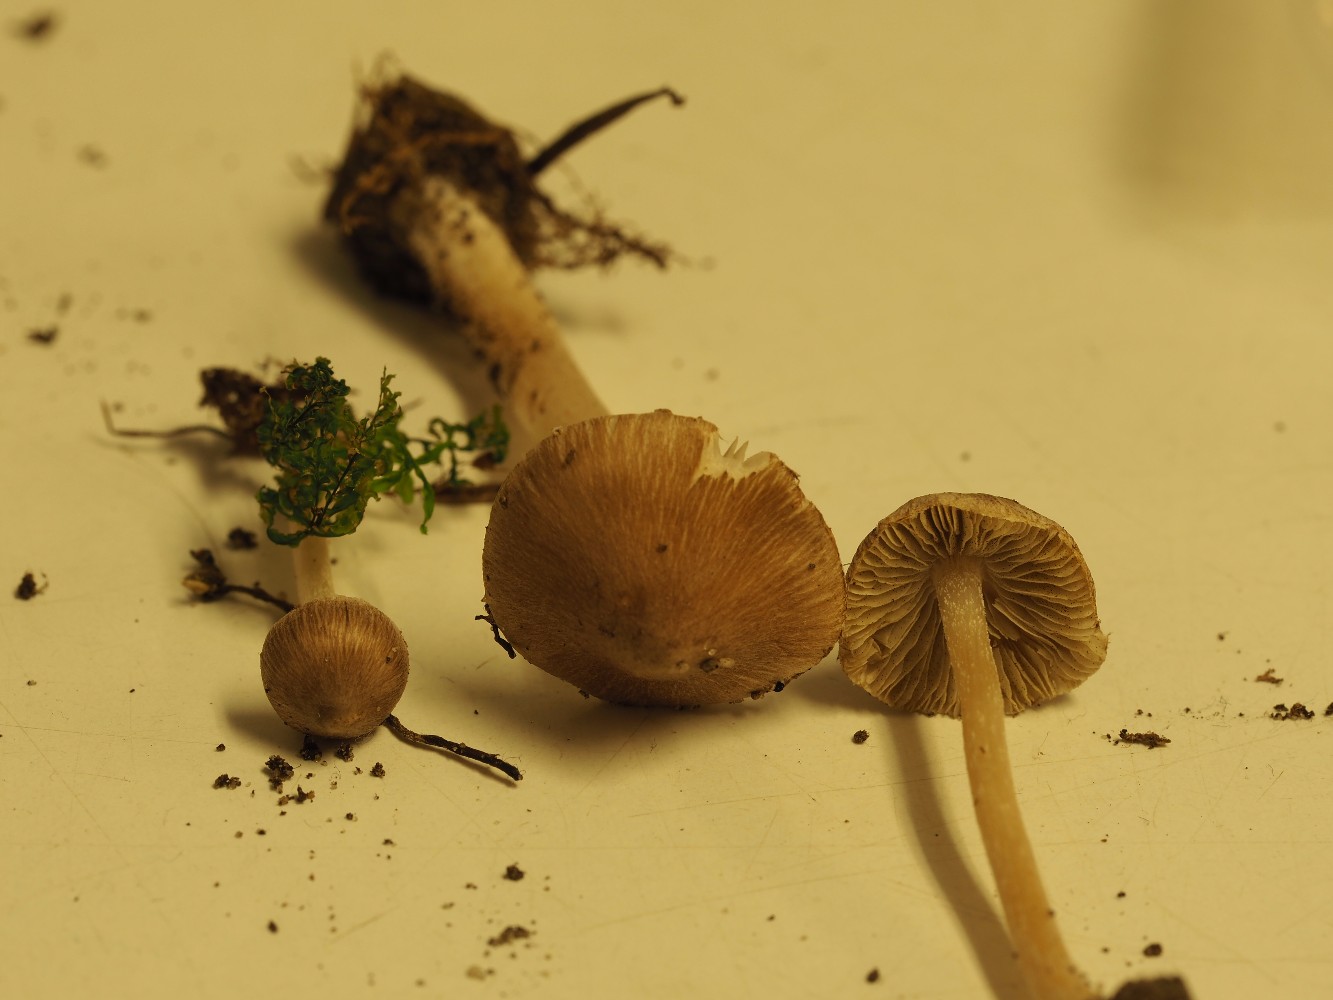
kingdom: Fungi
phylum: Basidiomycota
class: Agaricomycetes
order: Agaricales
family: Inocybaceae
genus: Inocybe
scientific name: Inocybe
